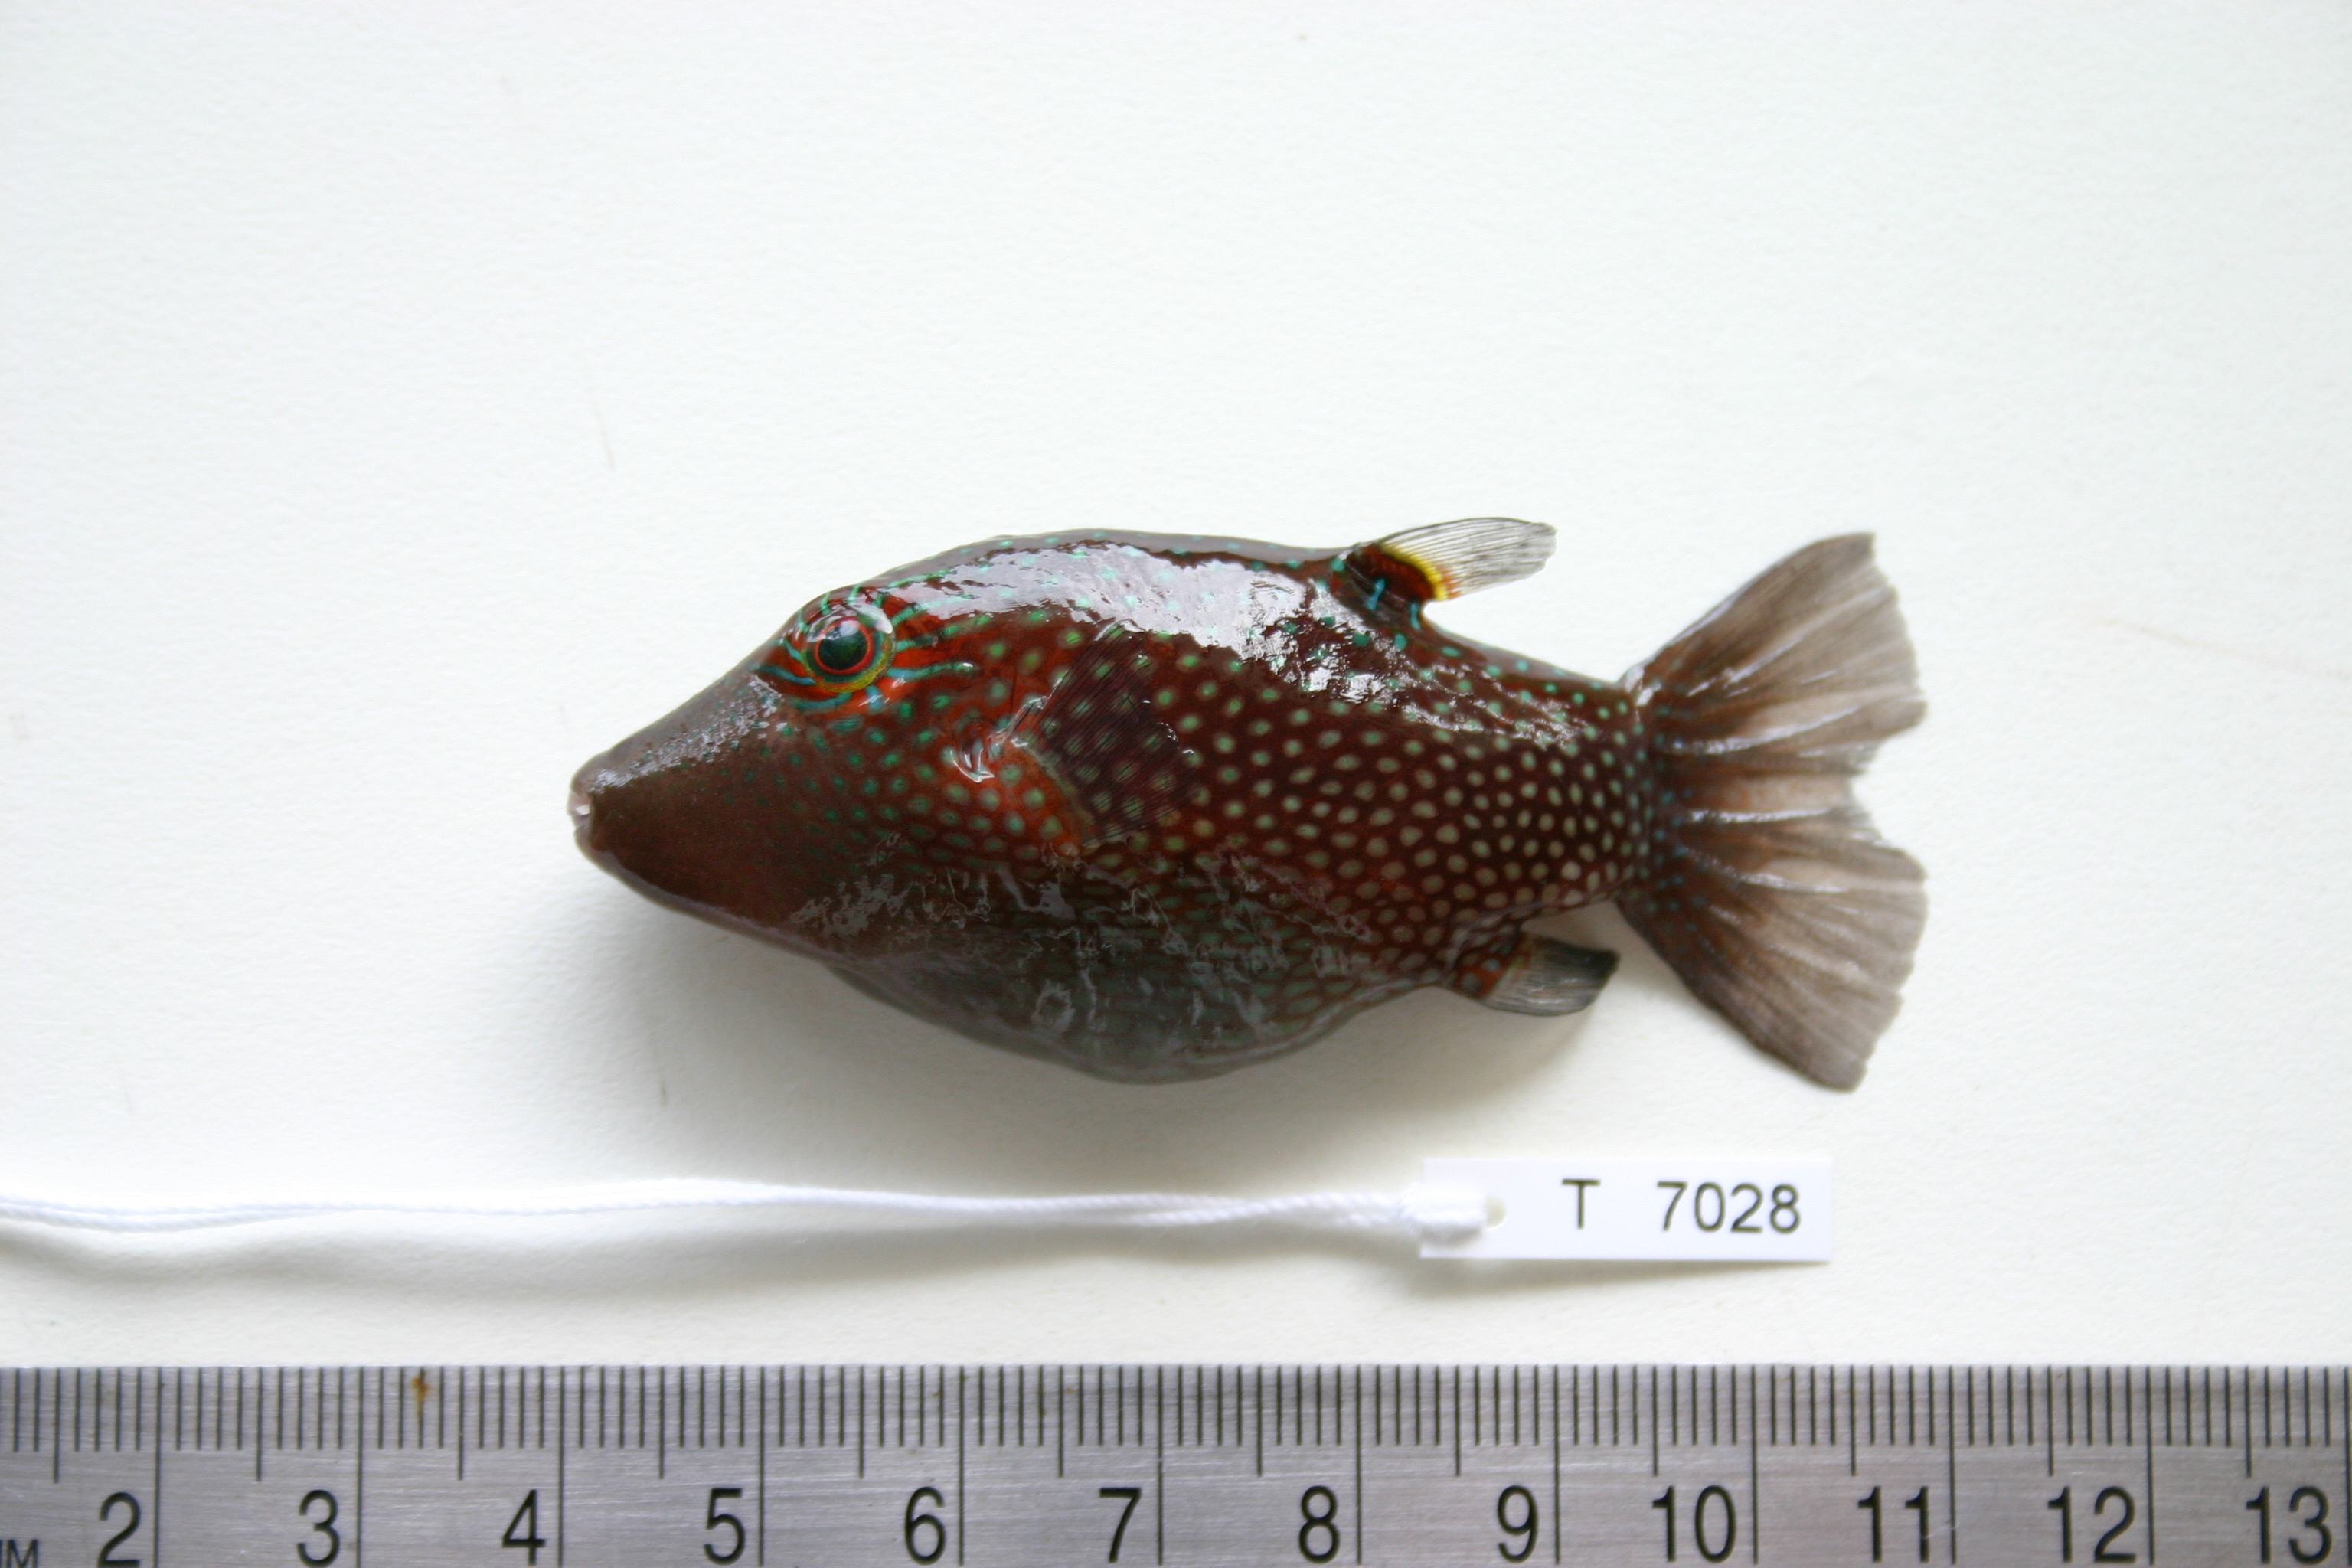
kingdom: Animalia
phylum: Chordata
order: Tetraodontiformes
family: Tetraodontidae
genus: Canthigaster
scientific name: Canthigaster amboinensis
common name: Ambon pufferfish
